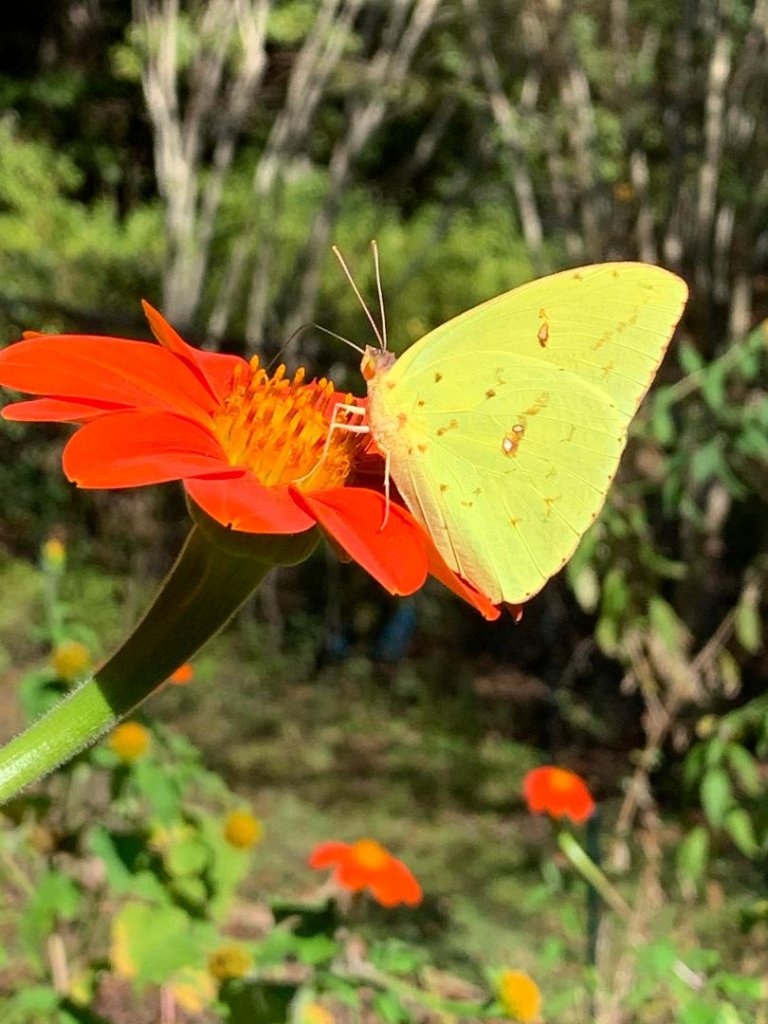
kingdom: Animalia
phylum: Arthropoda
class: Insecta
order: Lepidoptera
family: Pieridae
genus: Phoebis
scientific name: Phoebis sennae
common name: Cloudless Sulphur
